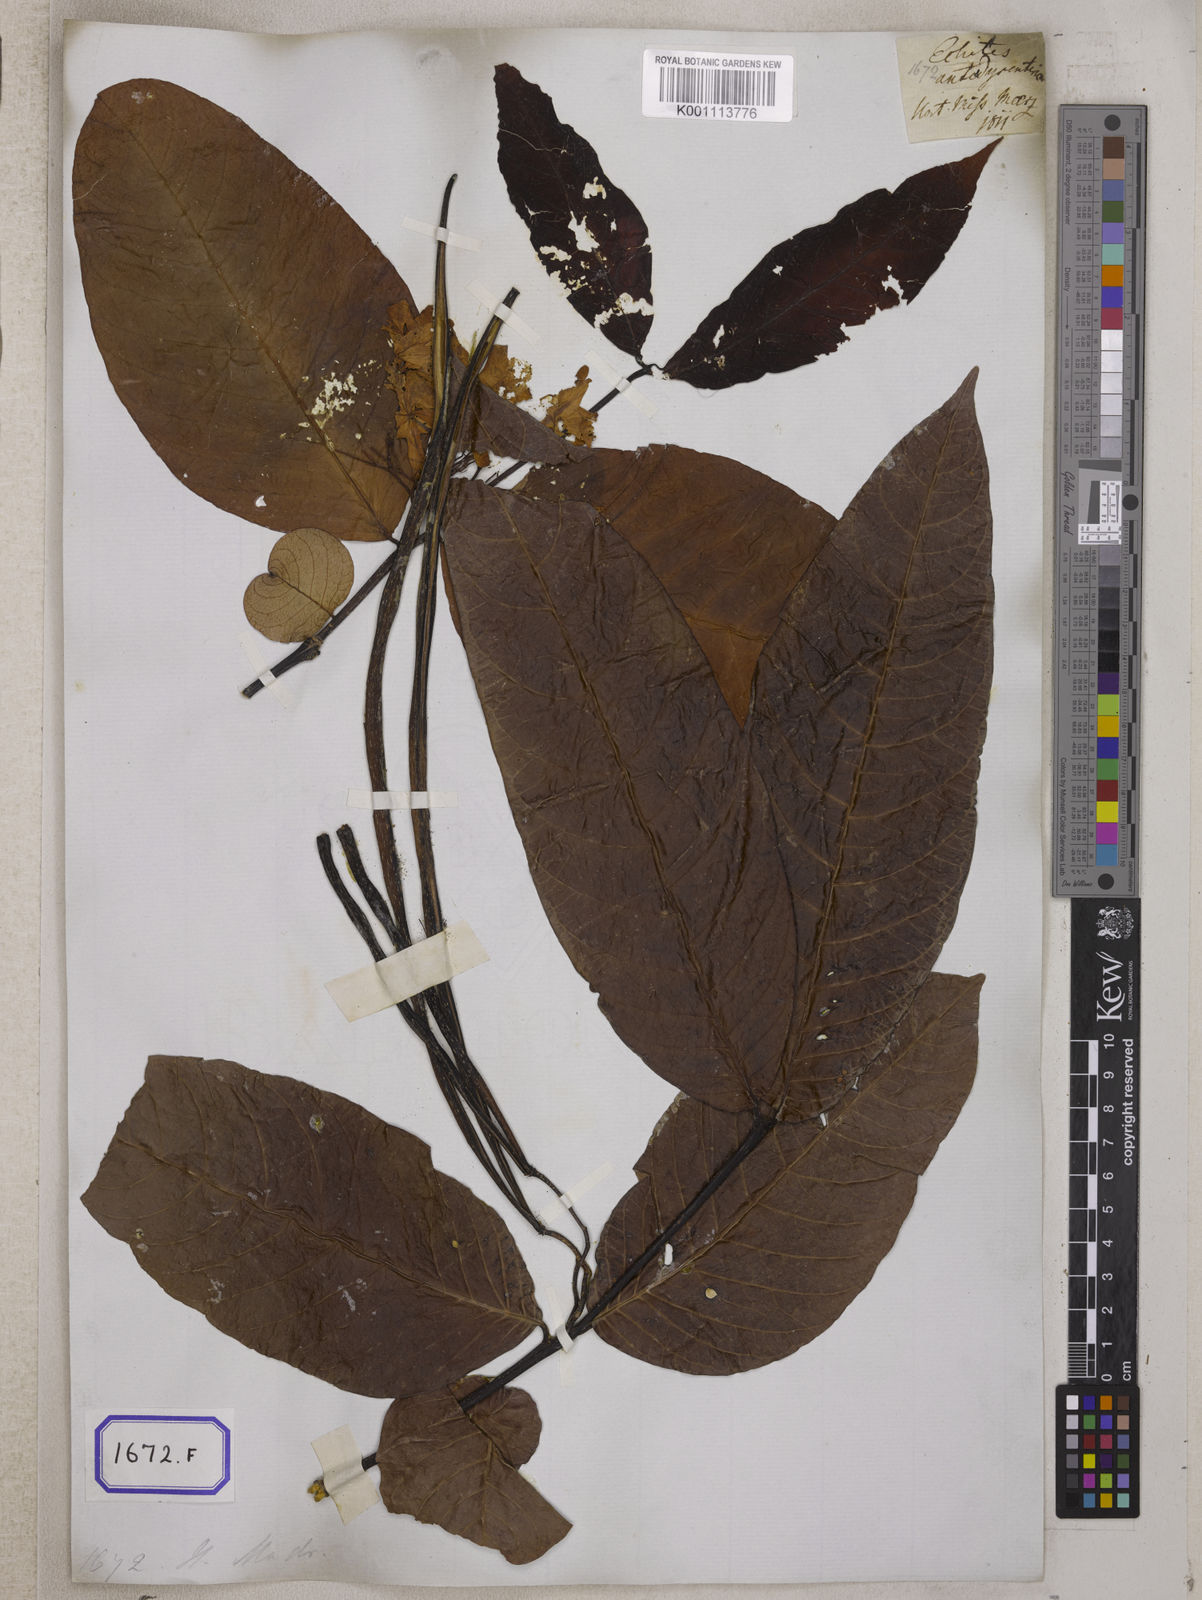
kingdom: Plantae
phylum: Tracheophyta
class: Magnoliopsida
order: Gentianales
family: Apocynaceae
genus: Holarrhena
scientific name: Holarrhena pubescens
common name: Bitter oleander
